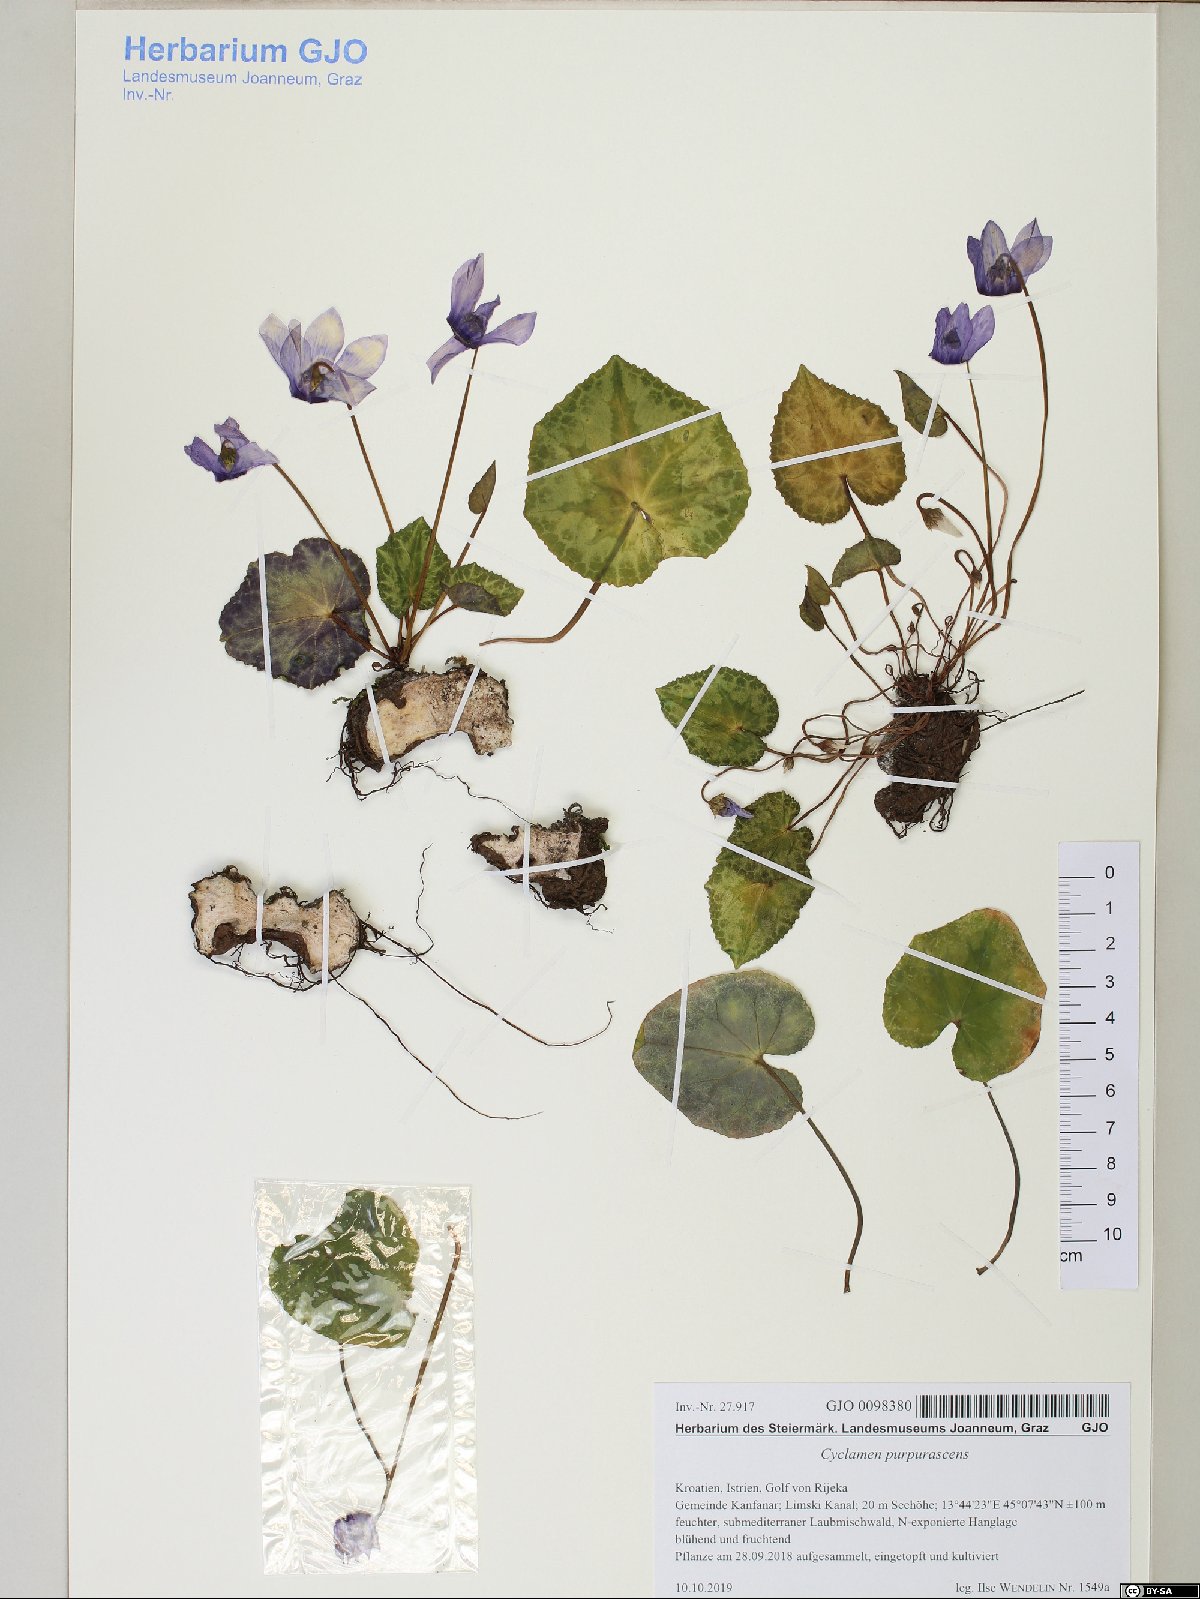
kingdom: Plantae
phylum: Tracheophyta
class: Magnoliopsida
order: Ericales
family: Primulaceae
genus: Cyclamen
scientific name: Cyclamen purpurascens
